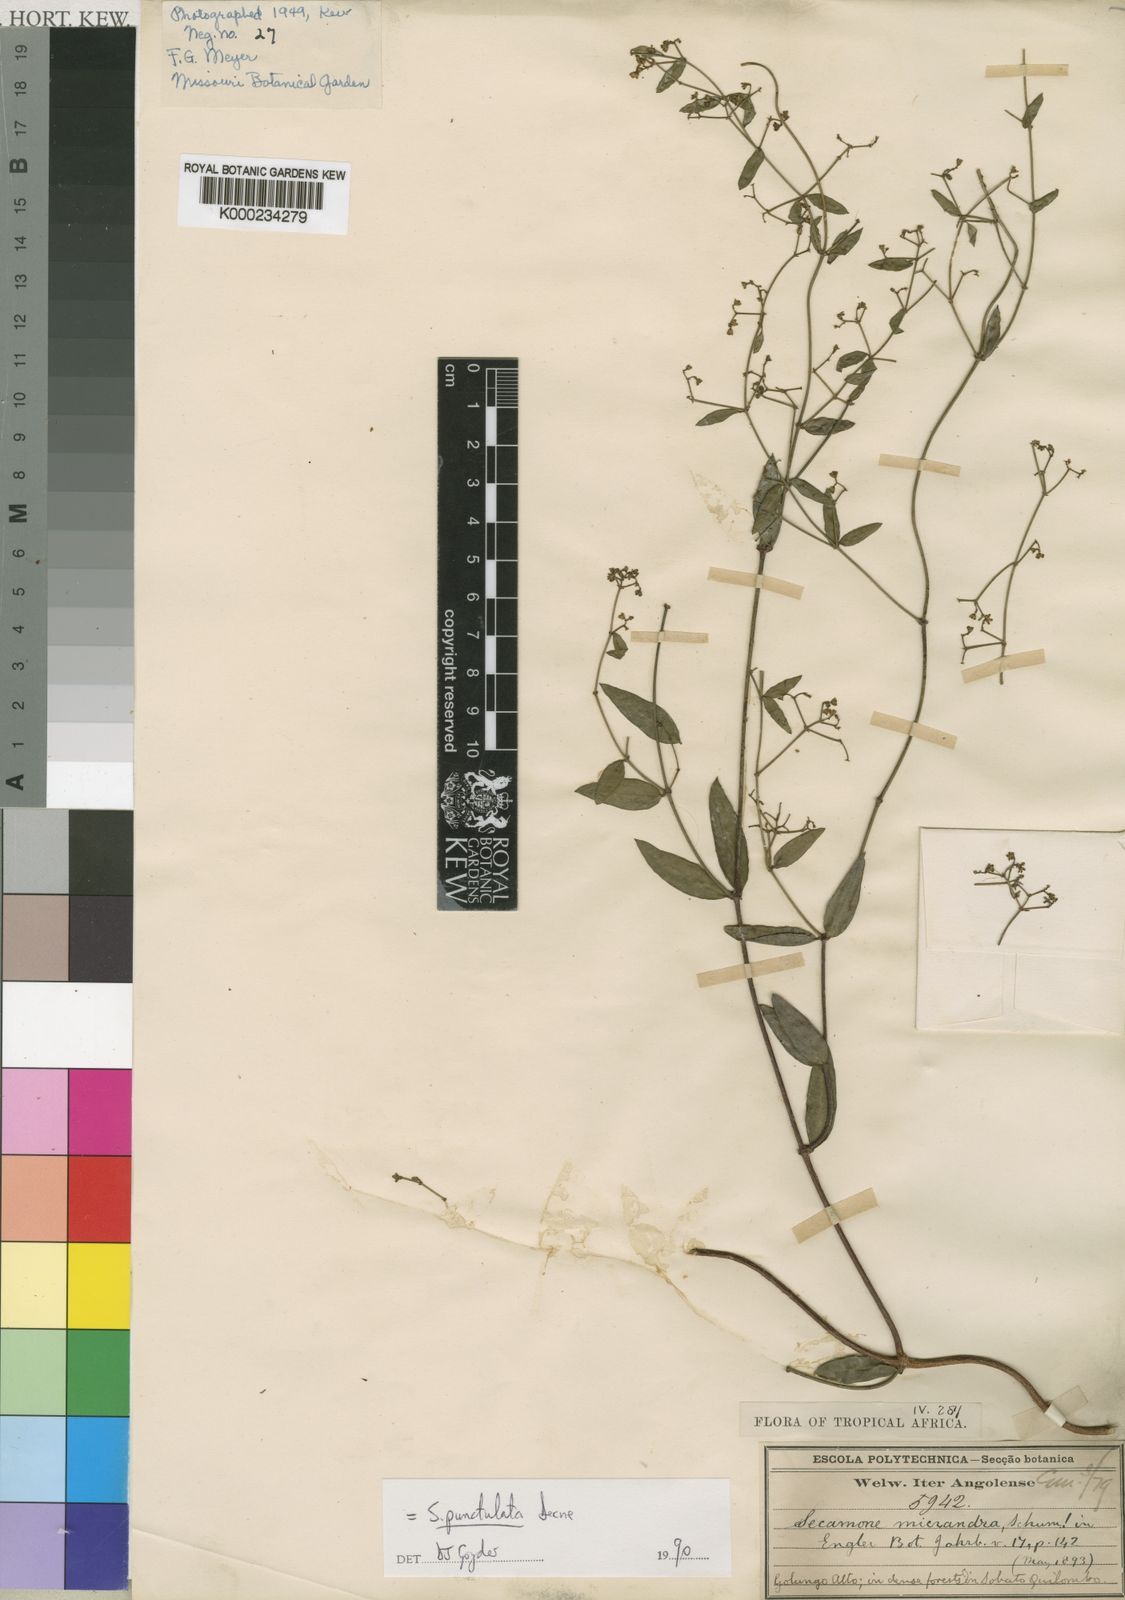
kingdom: Plantae
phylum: Tracheophyta
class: Magnoliopsida
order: Gentianales
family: Apocynaceae
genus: Secamone
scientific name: Secamone punctulata
